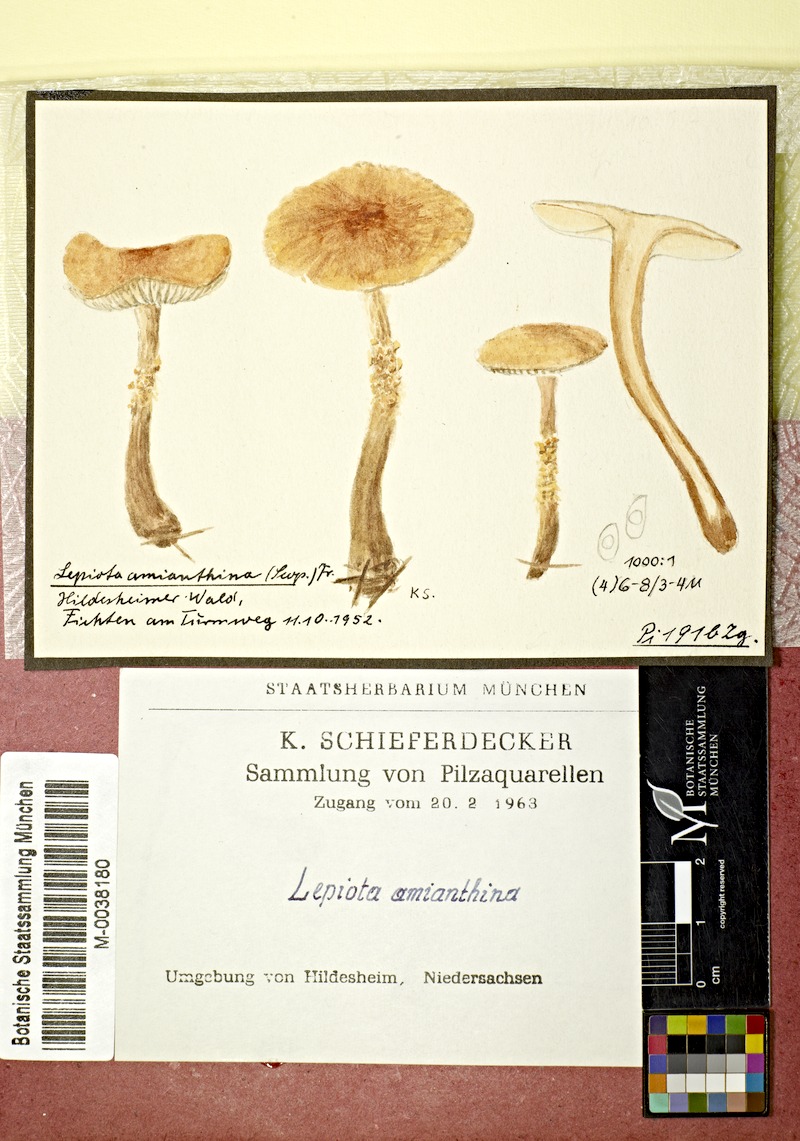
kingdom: Fungi
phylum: Basidiomycota
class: Agaricomycetes
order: Agaricales
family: Tricholomataceae
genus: Cystoderma
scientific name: Cystoderma amianthinum
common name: Earthy powdercap
